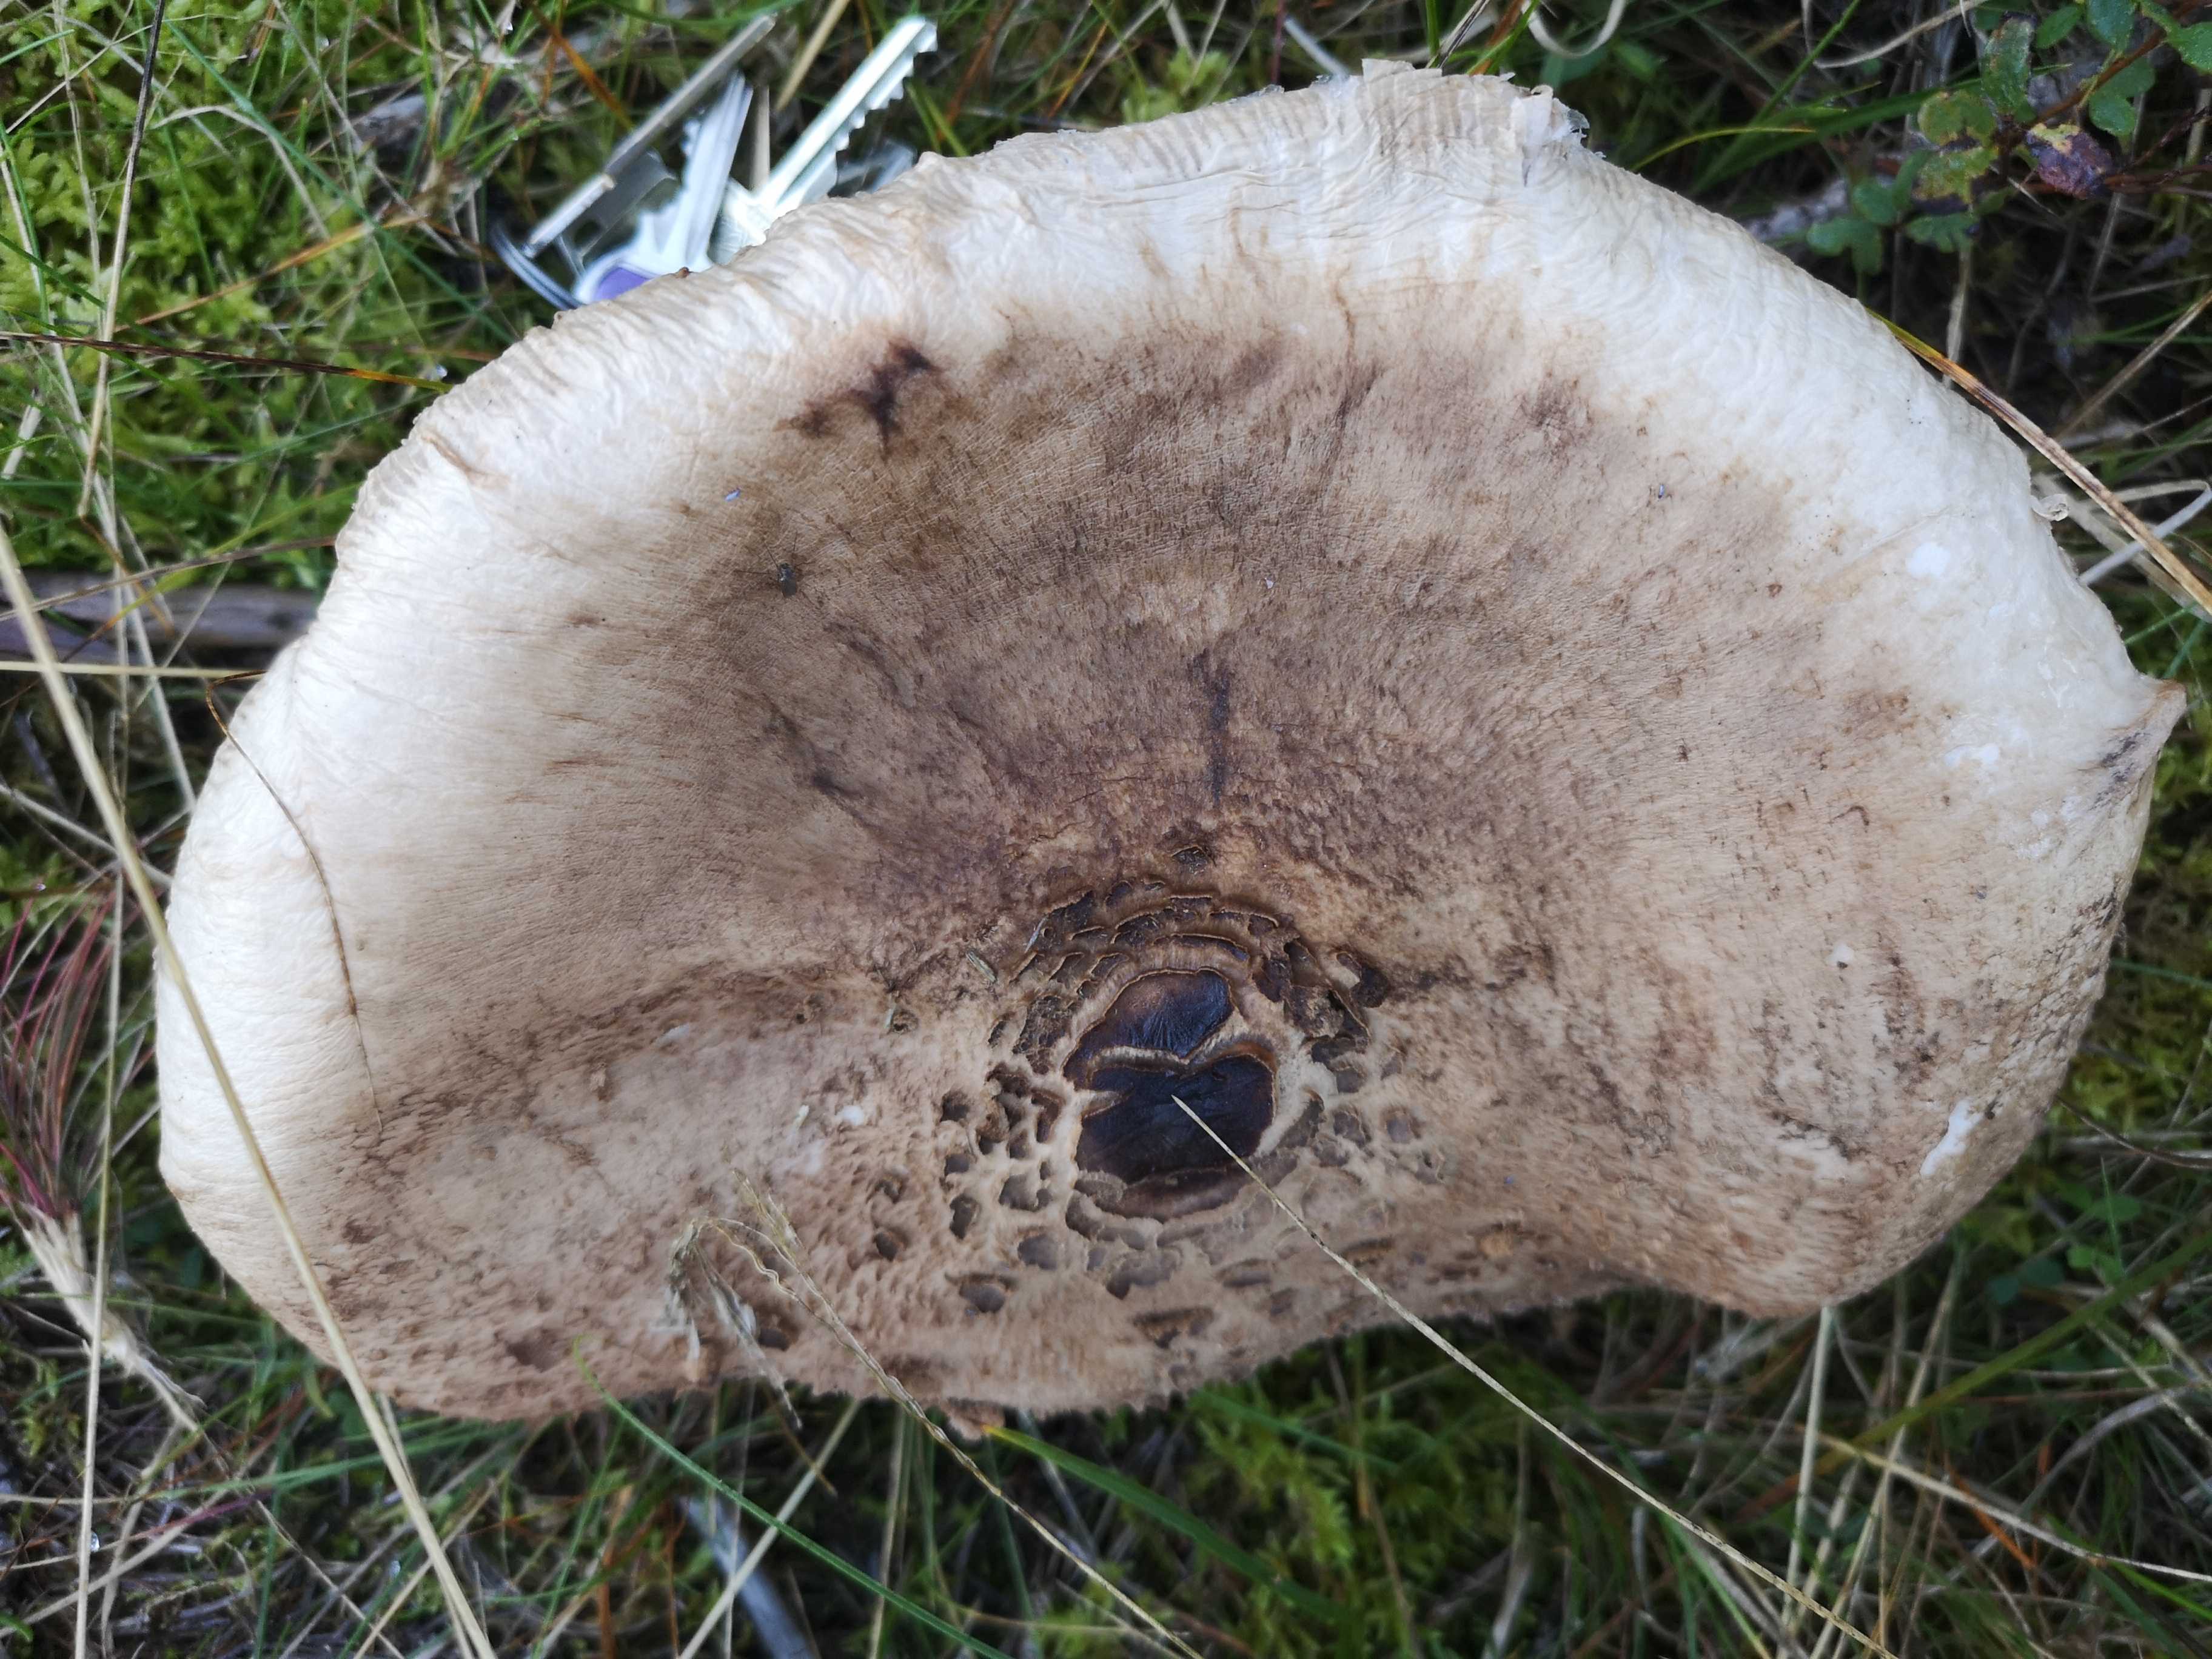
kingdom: Fungi
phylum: Basidiomycota
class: Agaricomycetes
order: Agaricales
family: Agaricaceae
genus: Macrolepiota
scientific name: Macrolepiota
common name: kæmpeparasolhat
